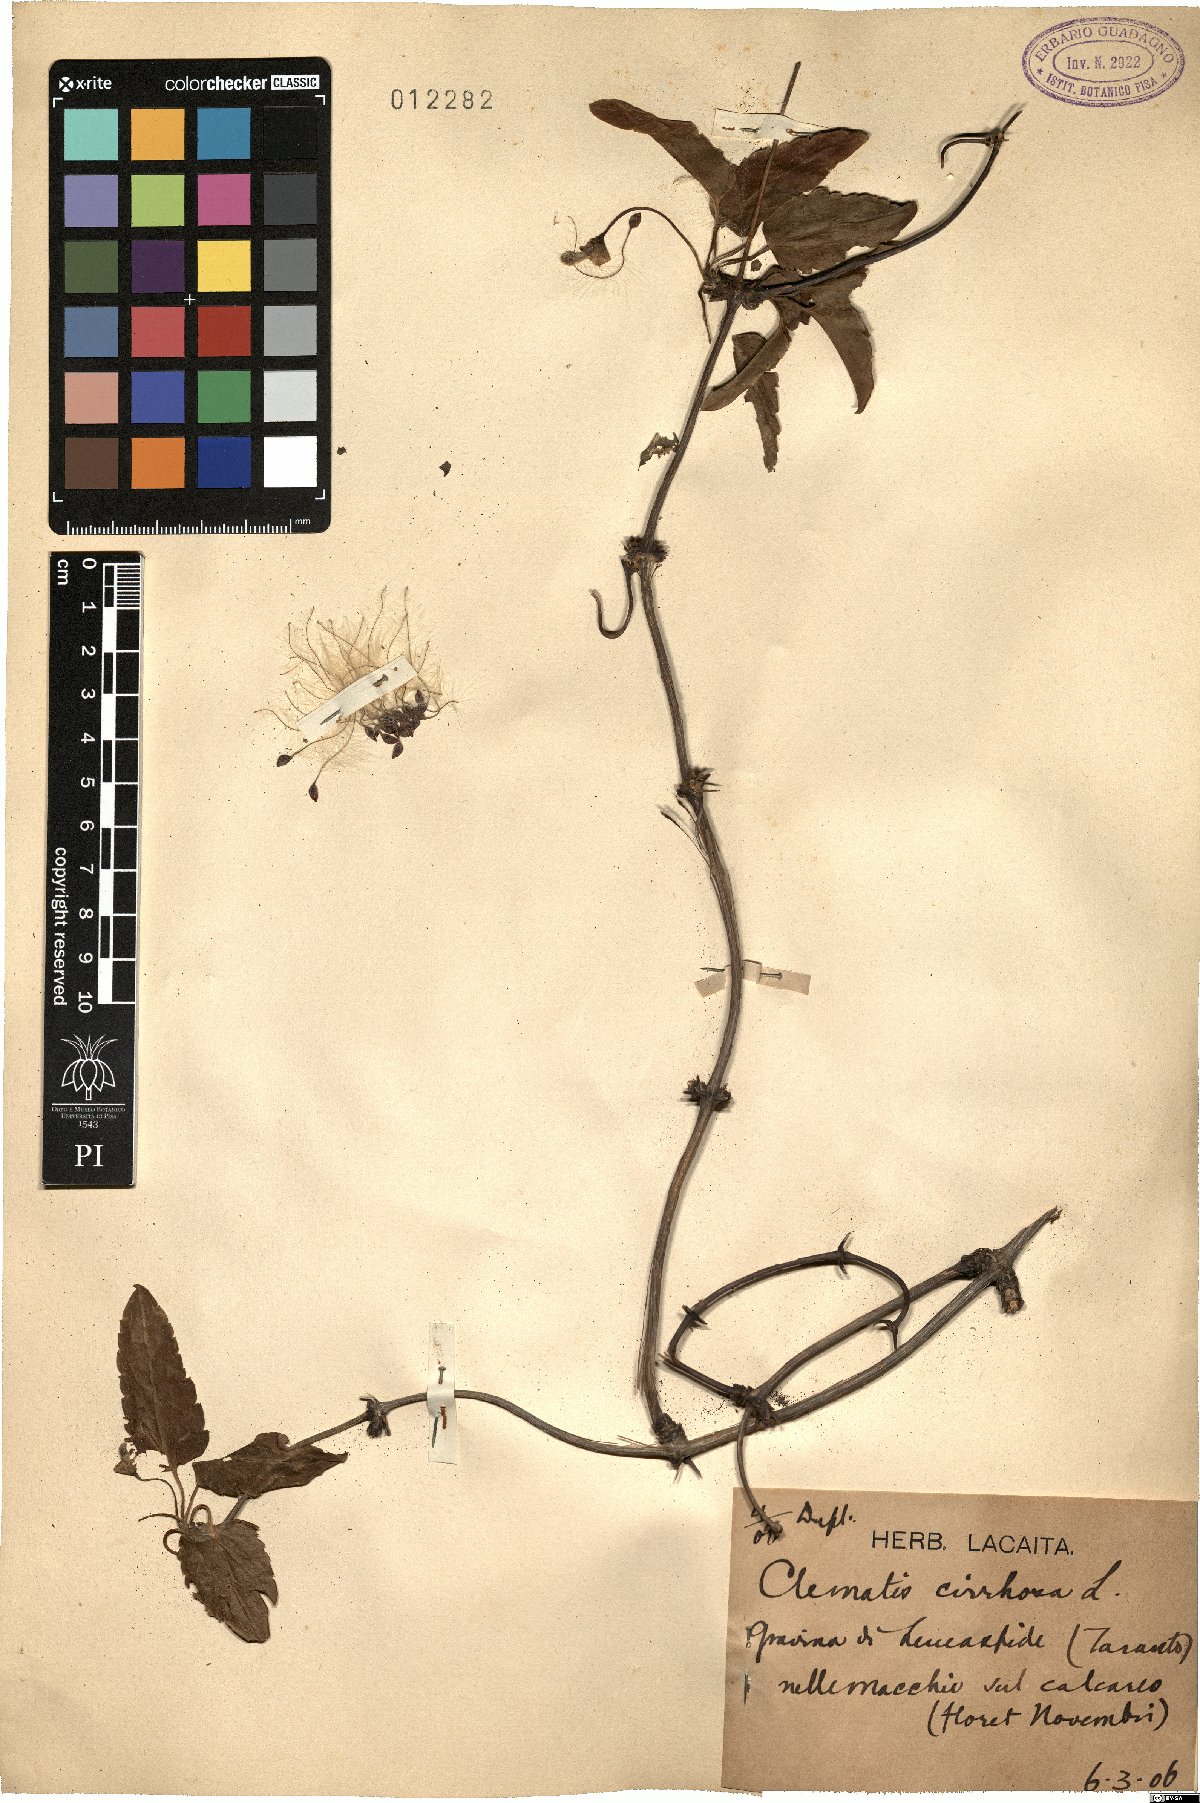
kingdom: Plantae
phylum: Tracheophyta
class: Magnoliopsida
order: Ranunculales
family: Ranunculaceae
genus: Clematis
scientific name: Clematis cirrhosa
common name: Early virgin's-bower
